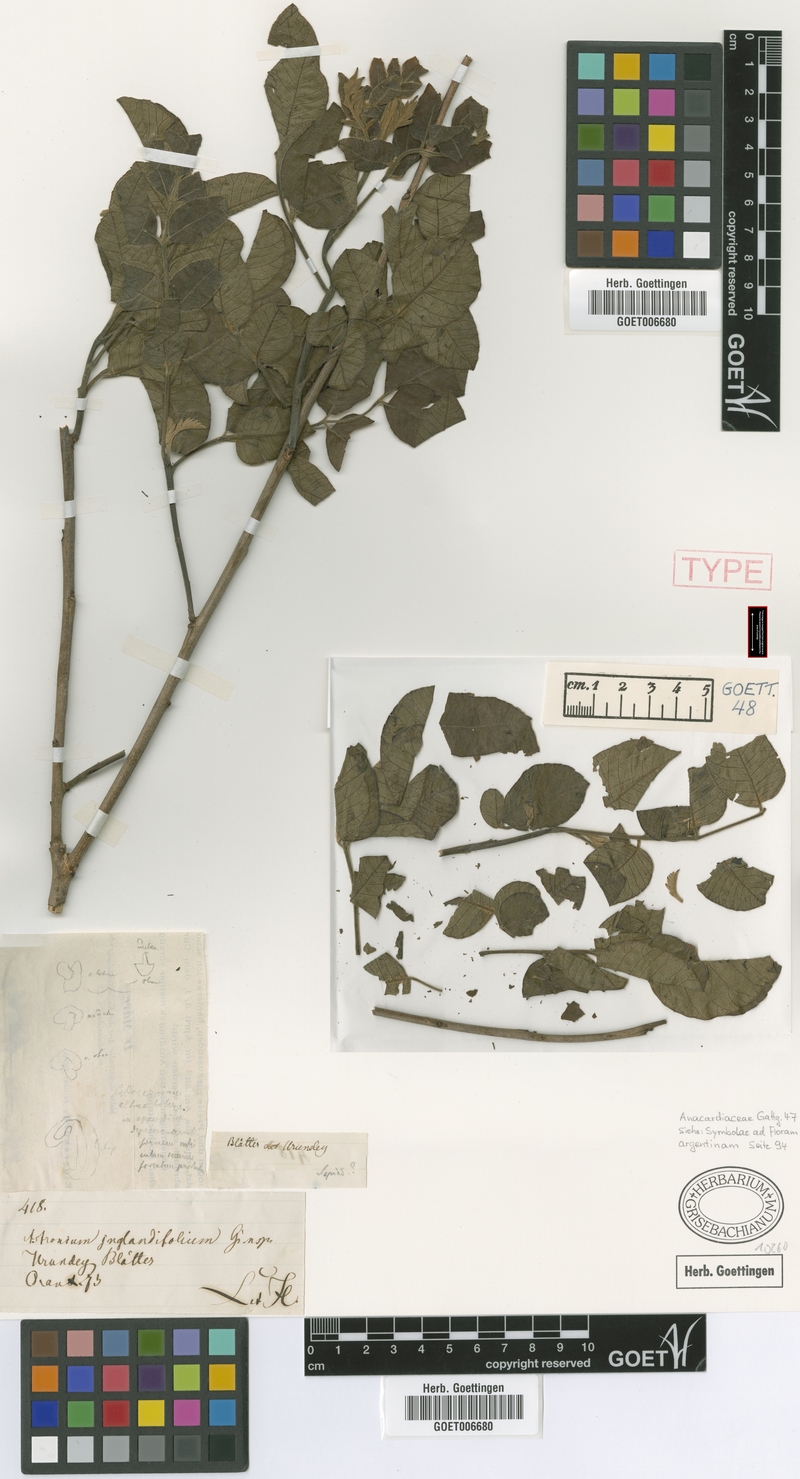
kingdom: Plantae
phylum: Tracheophyta
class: Magnoliopsida
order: Sapindales
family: Anacardiaceae
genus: Myracrodruon
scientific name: Myracrodruon urundeuva
